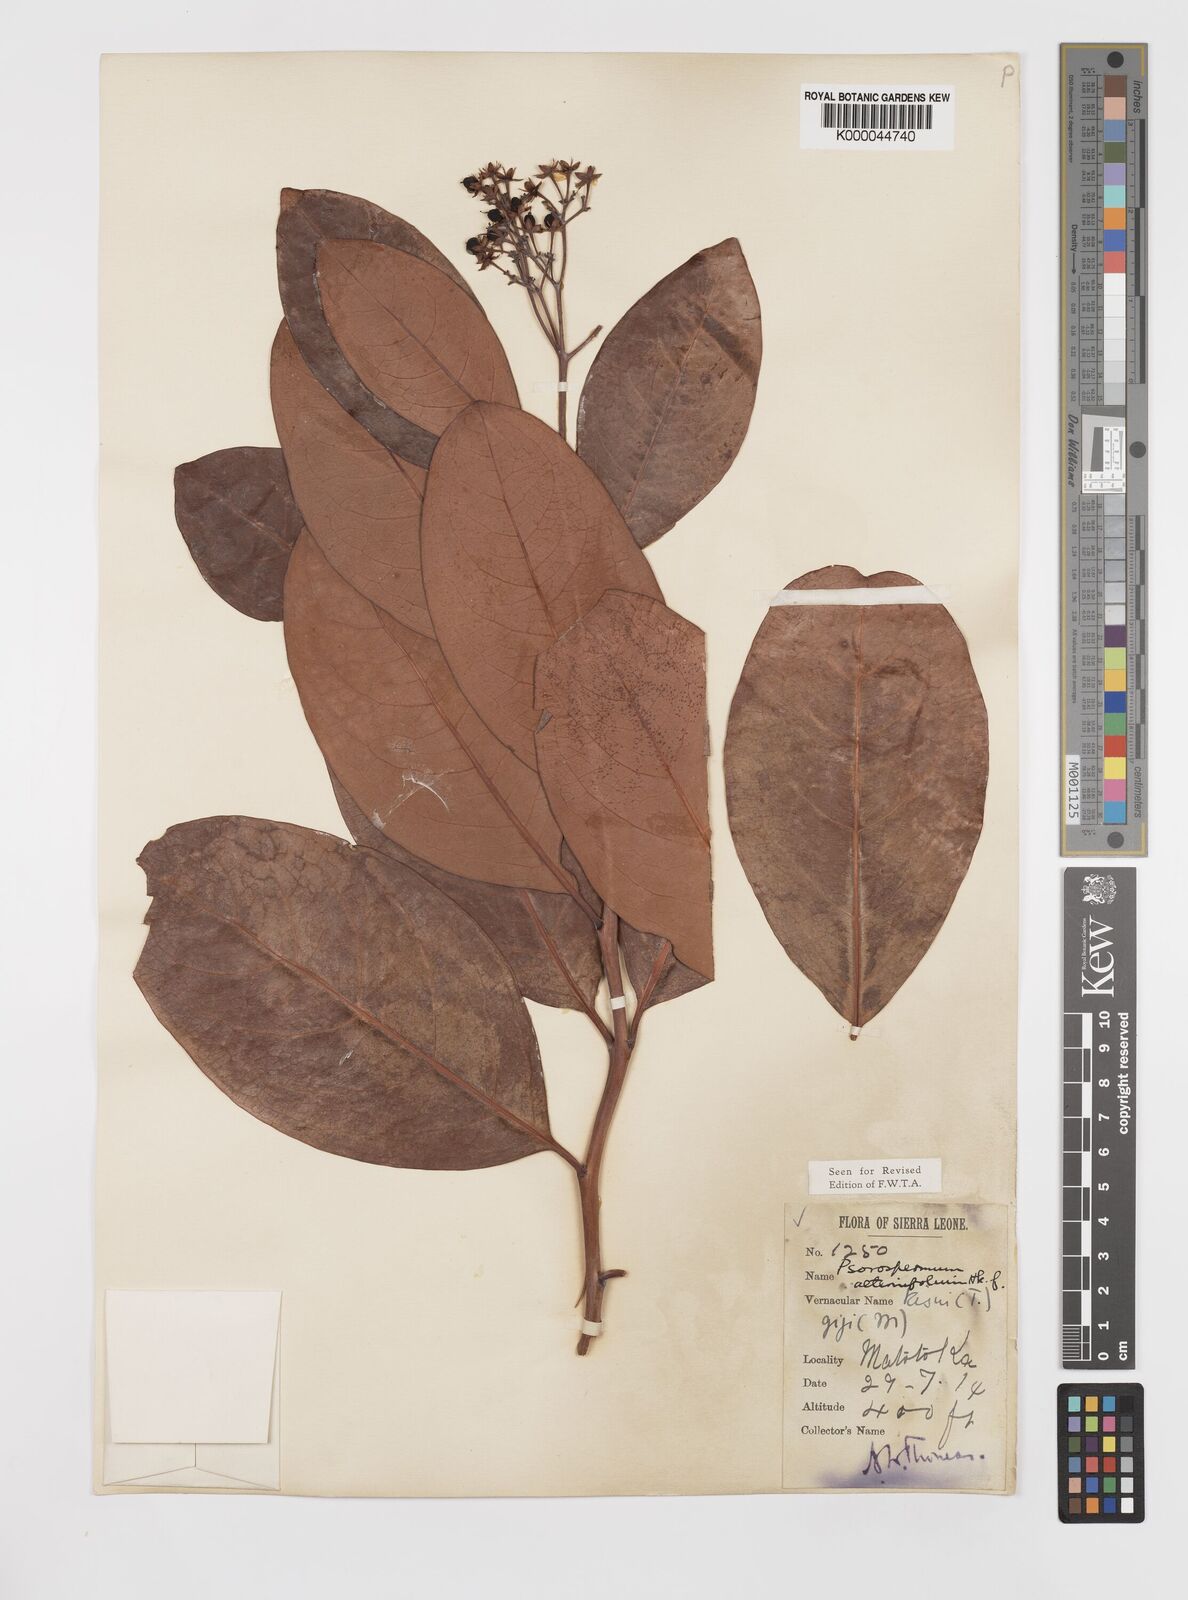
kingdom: Plantae
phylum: Tracheophyta
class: Magnoliopsida
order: Malpighiales
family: Hypericaceae
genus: Psorospermum
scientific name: Psorospermum alternifolium
